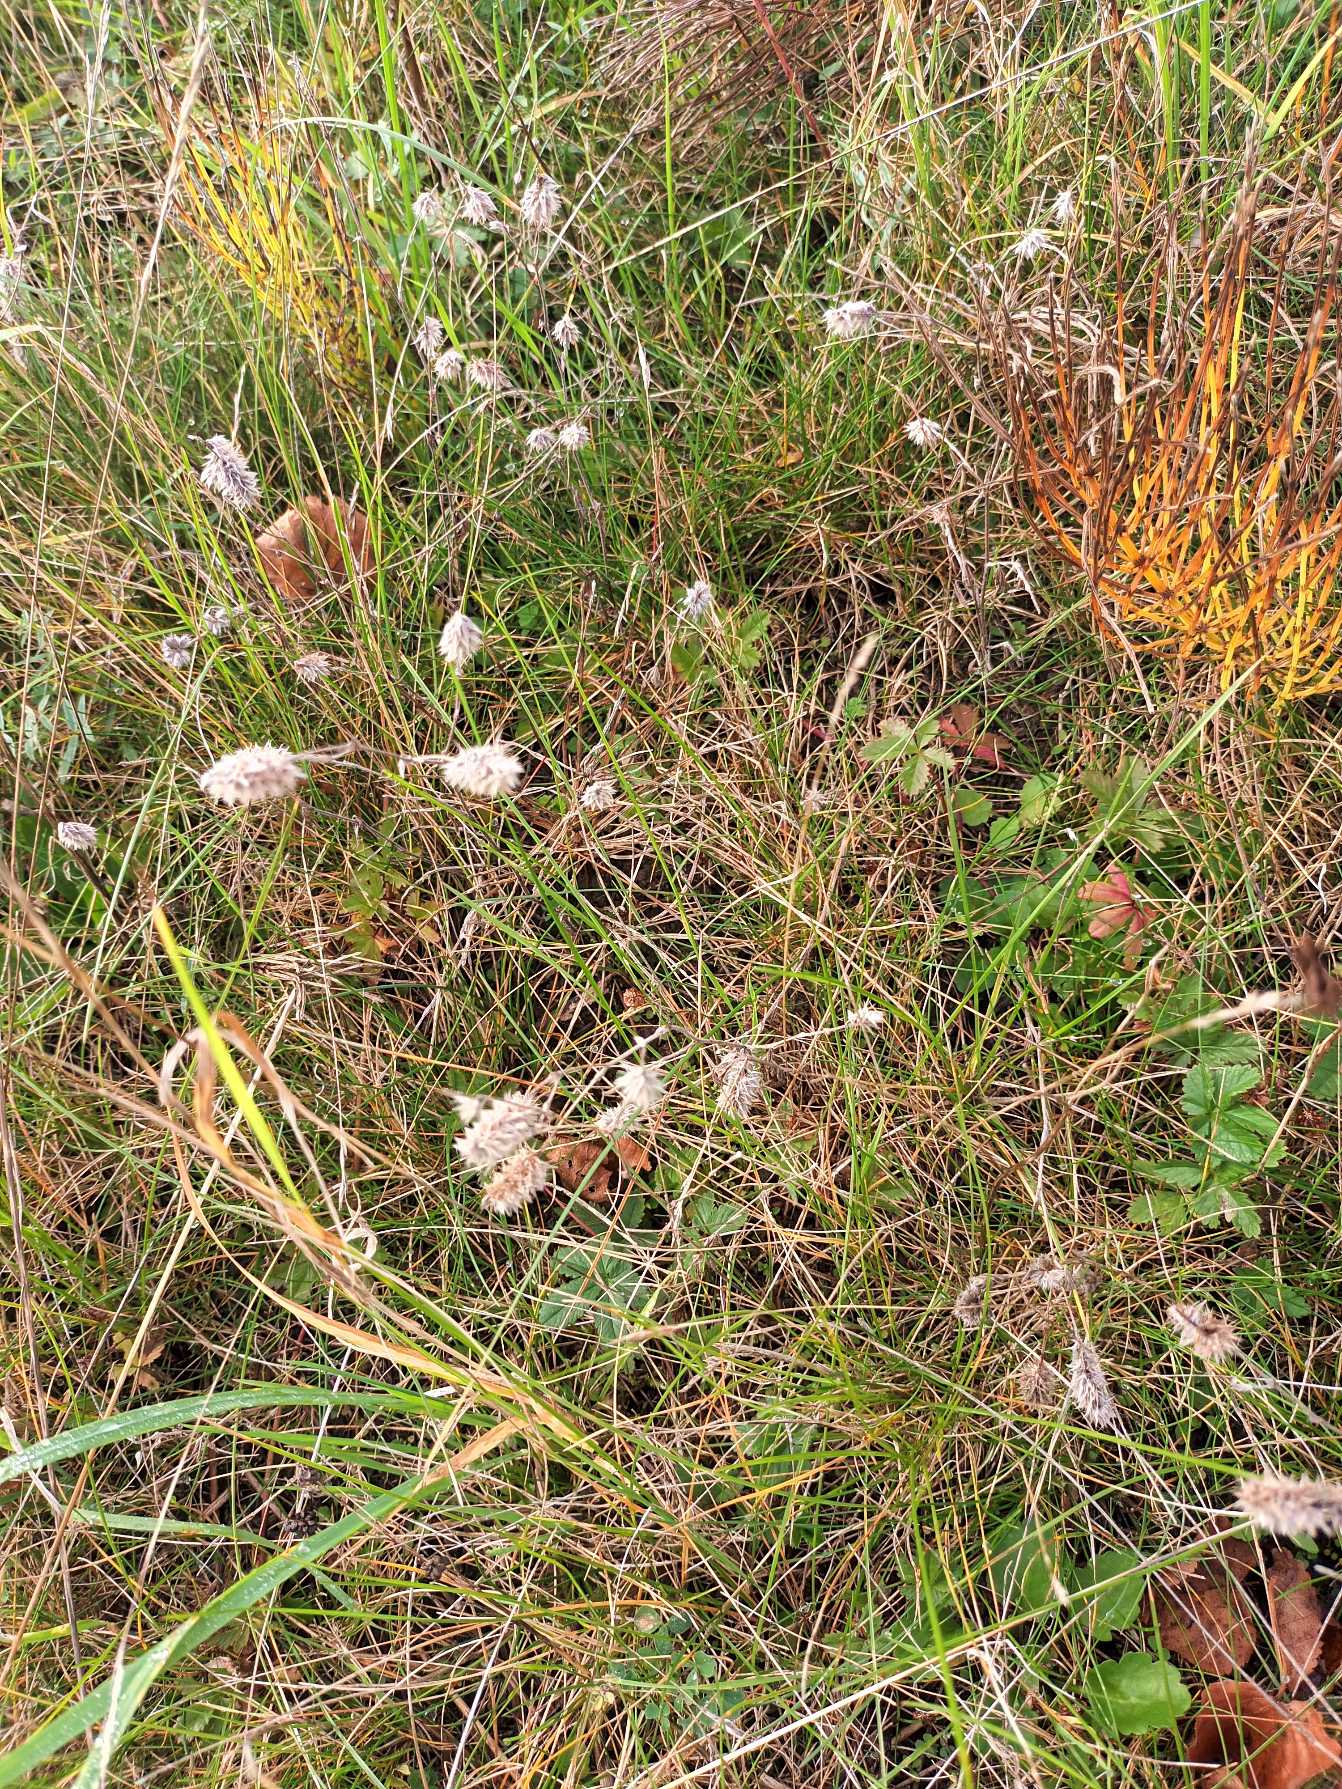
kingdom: Plantae
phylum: Tracheophyta
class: Magnoliopsida
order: Fabales
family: Fabaceae
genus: Trifolium
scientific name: Trifolium arvense
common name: Hare-kløver
